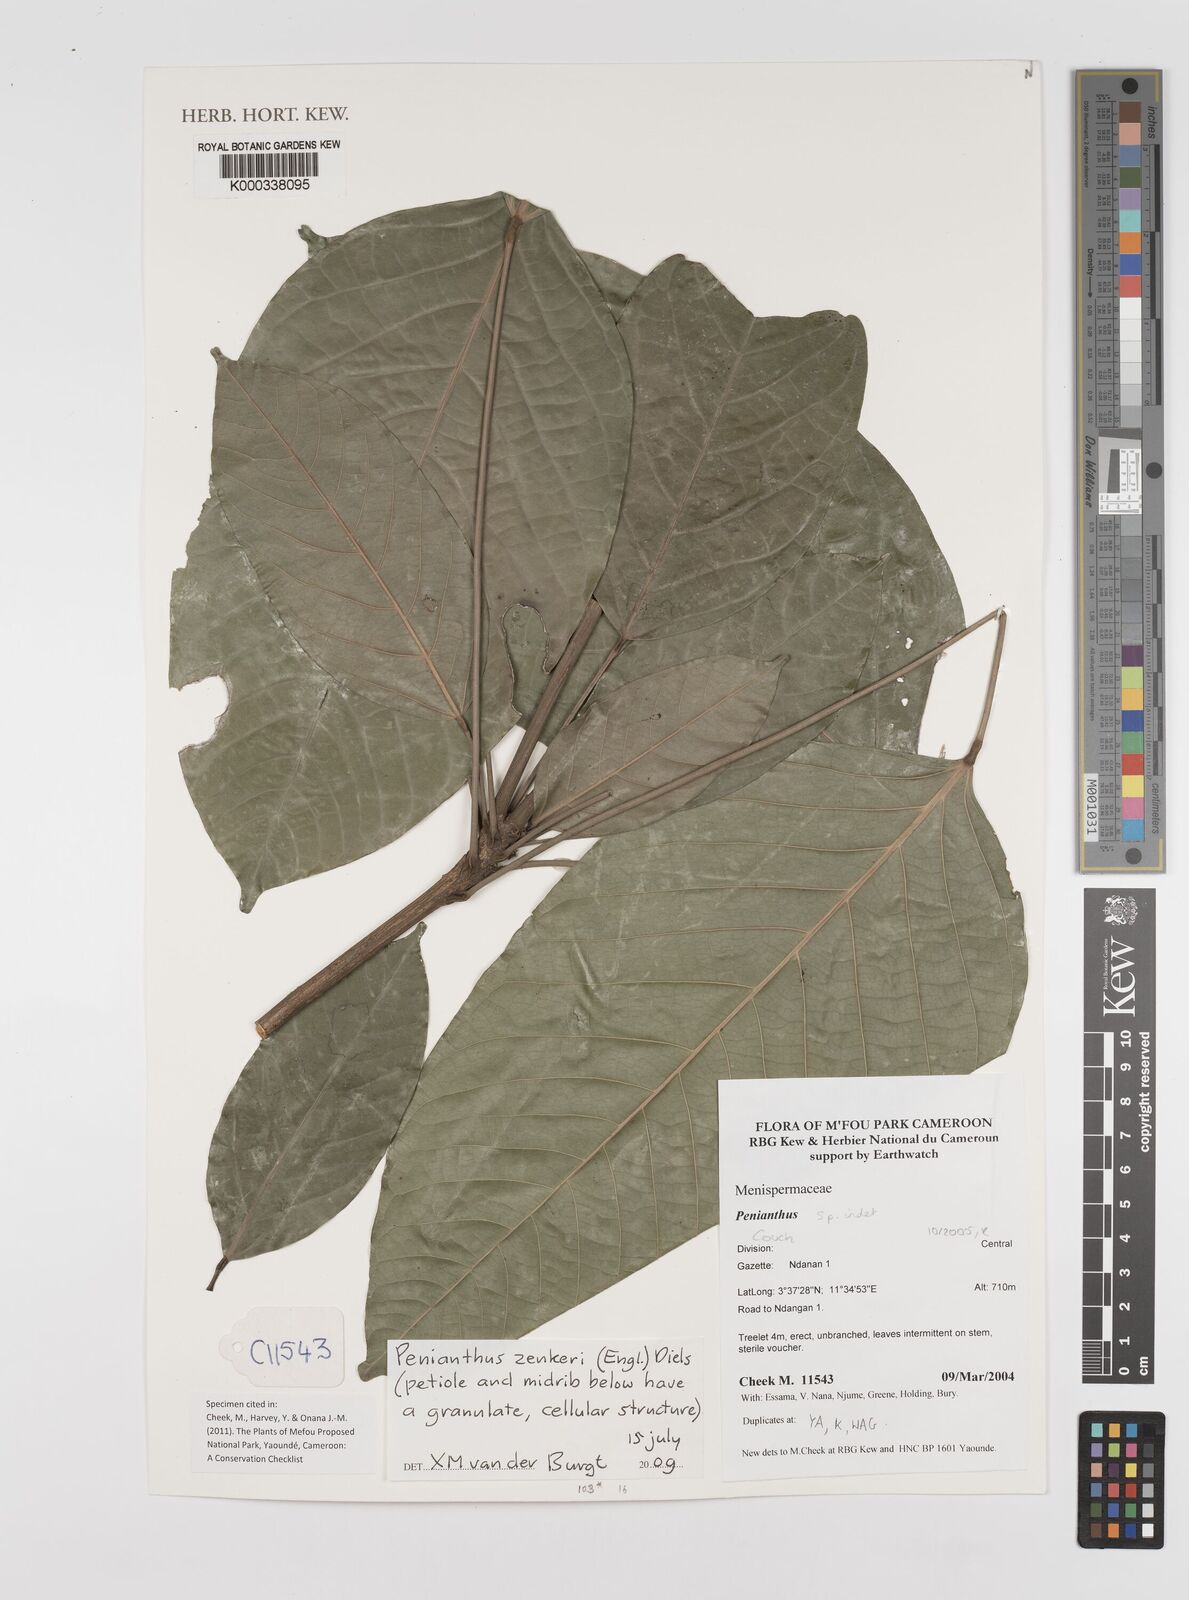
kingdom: Plantae
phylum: Tracheophyta
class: Magnoliopsida
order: Ranunculales
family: Menispermaceae
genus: Penianthus
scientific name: Penianthus zenkeri
